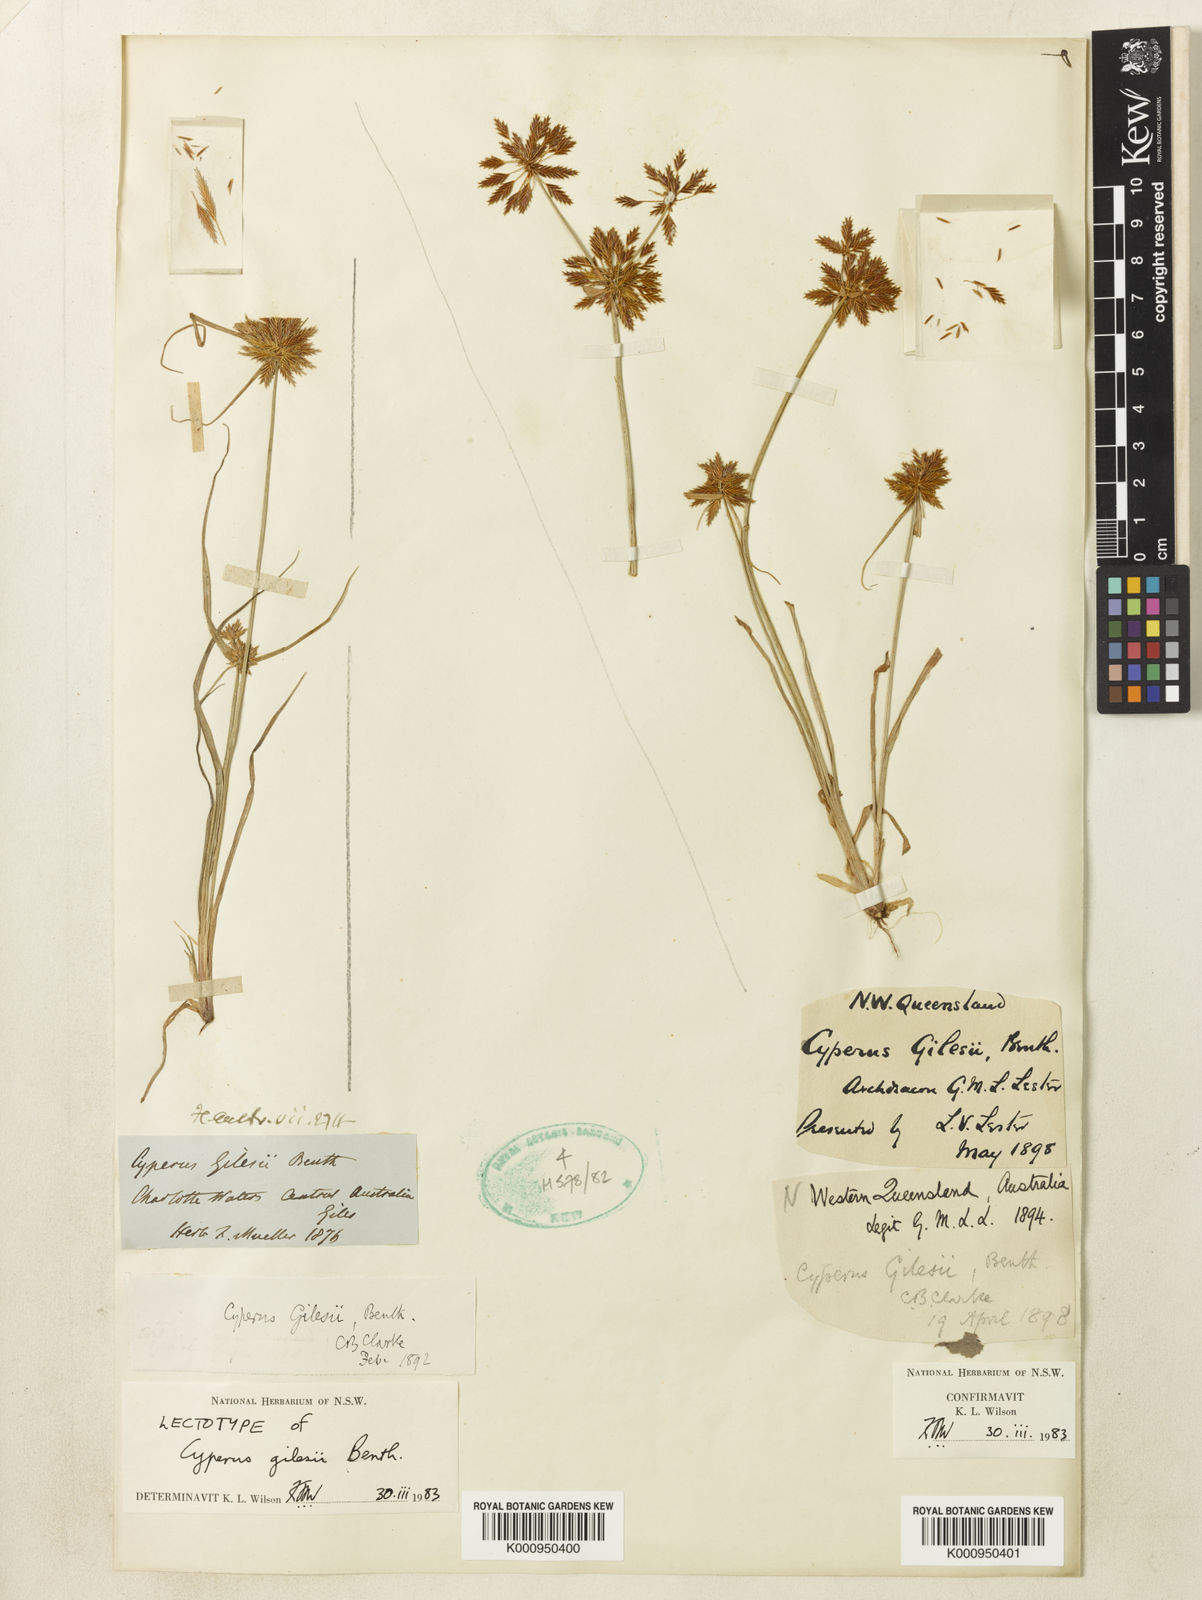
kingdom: Plantae
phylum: Tracheophyta
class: Liliopsida
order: Poales
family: Cyperaceae
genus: Cyperus
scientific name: Cyperus gilesii
